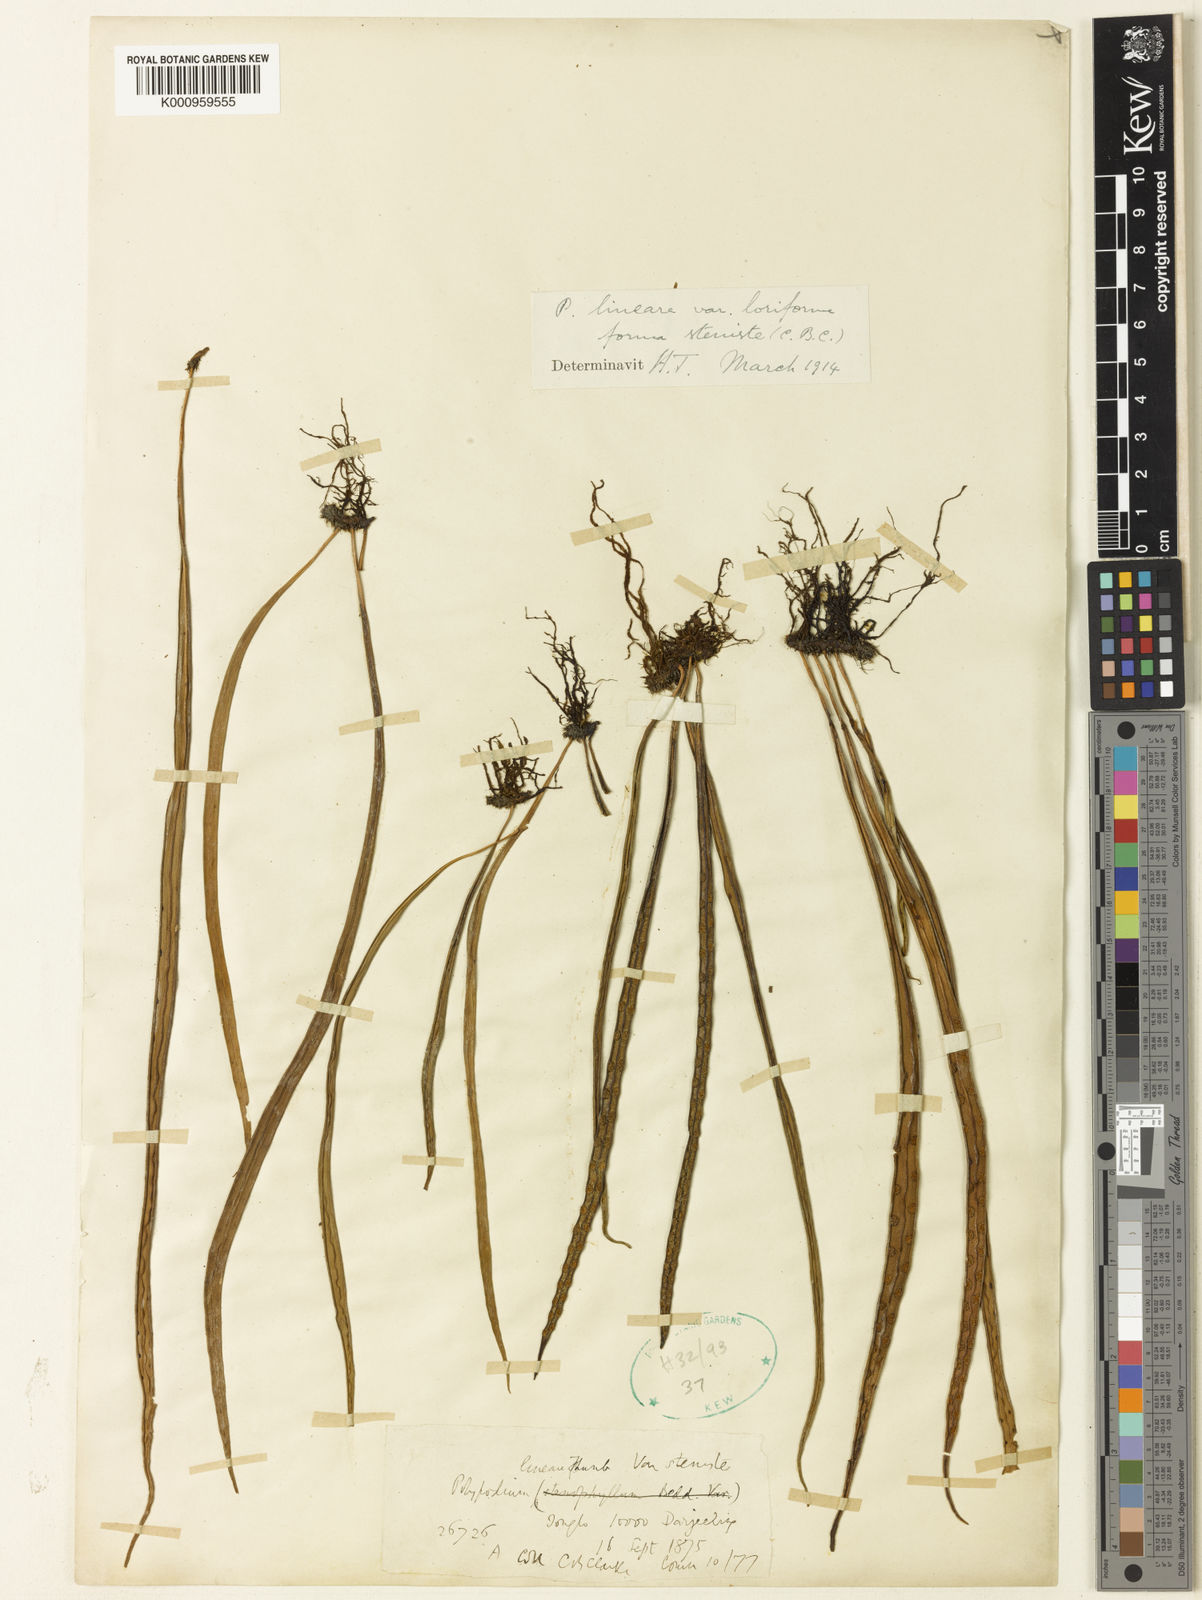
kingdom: Plantae
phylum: Tracheophyta
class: Polypodiopsida
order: Polypodiales
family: Polypodiaceae
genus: Lepisorus
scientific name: Lepisorus loriformis
